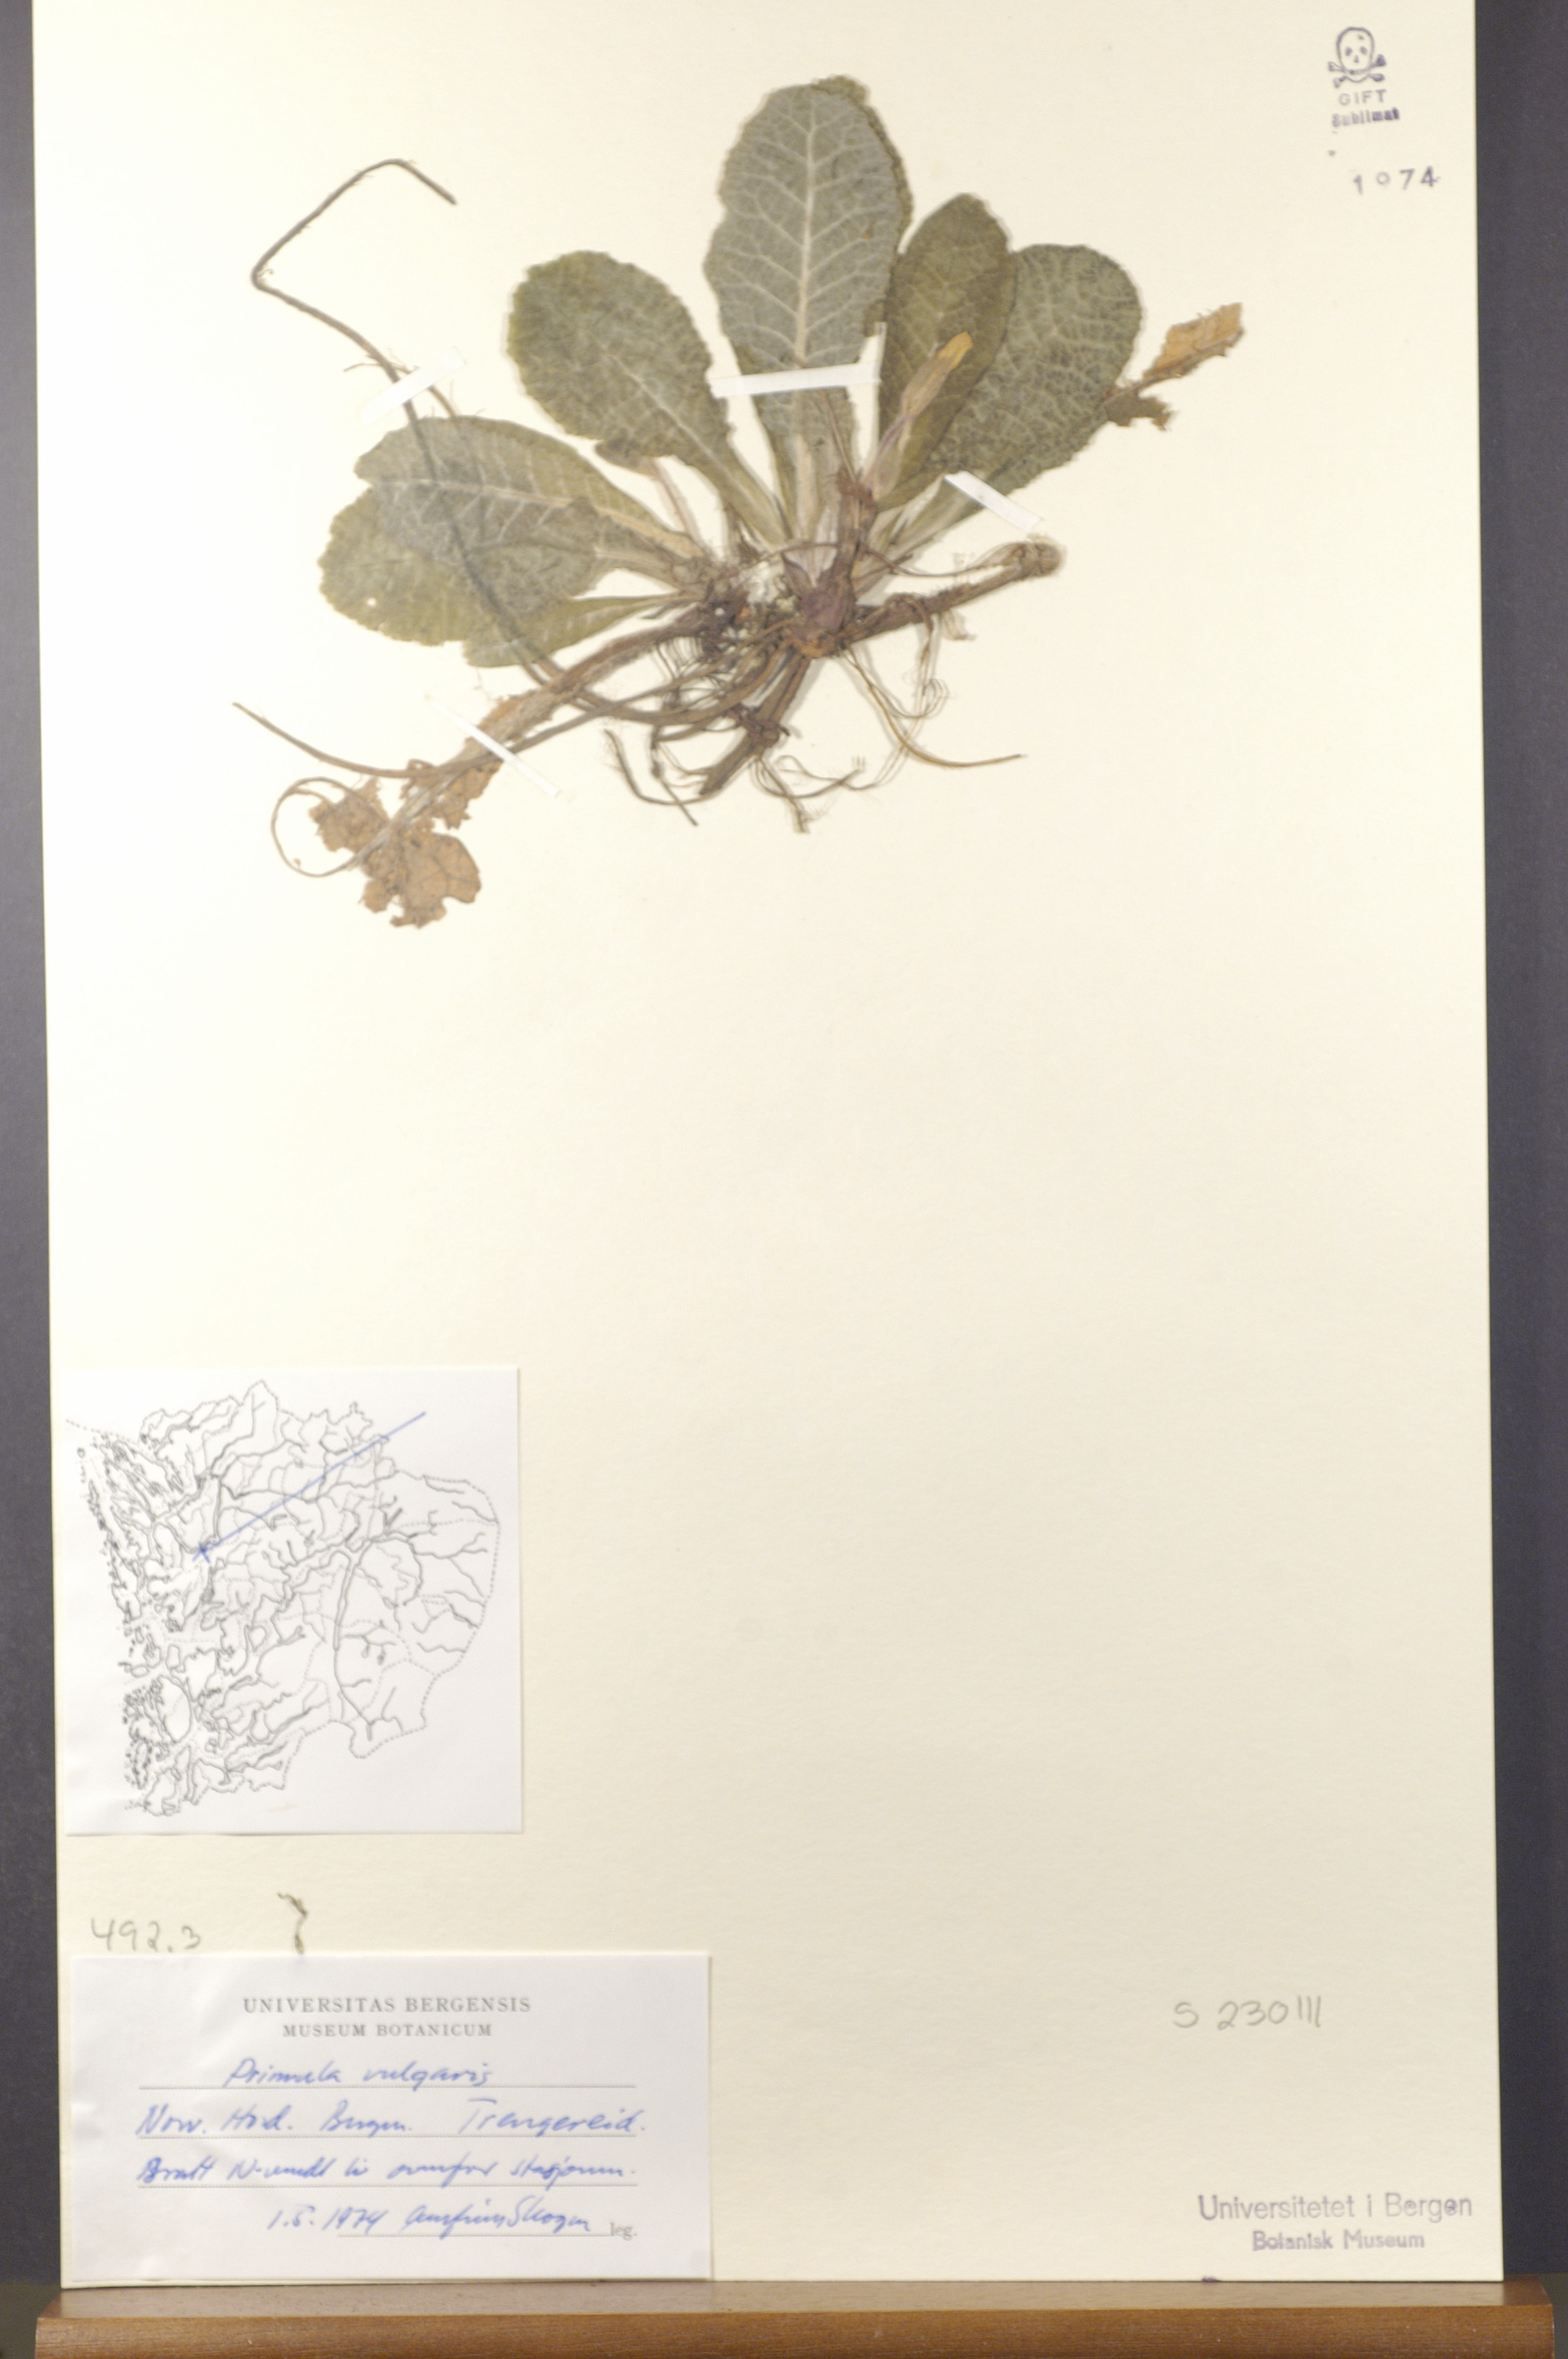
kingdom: Plantae
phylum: Tracheophyta
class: Magnoliopsida
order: Ericales
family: Primulaceae
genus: Primula
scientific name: Primula vulgaris
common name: Primrose
